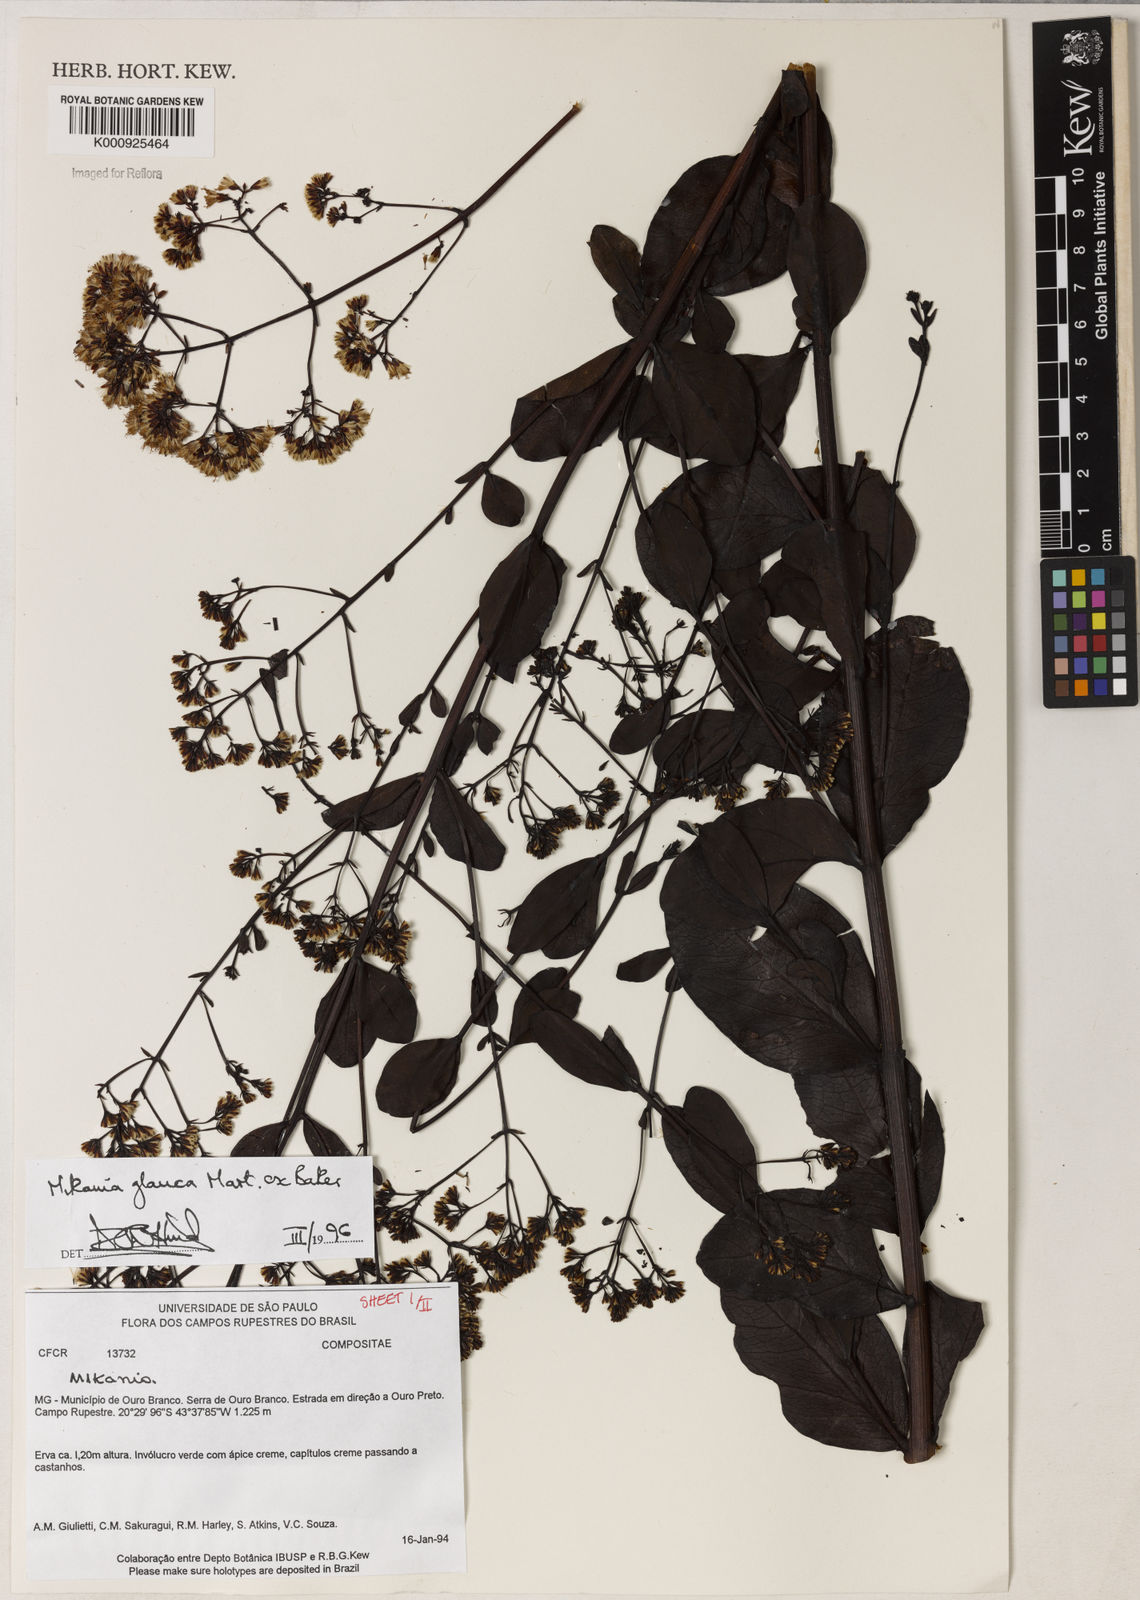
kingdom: Plantae
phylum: Tracheophyta
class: Magnoliopsida
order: Asterales
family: Asteraceae
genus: Mikania
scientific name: Mikania
